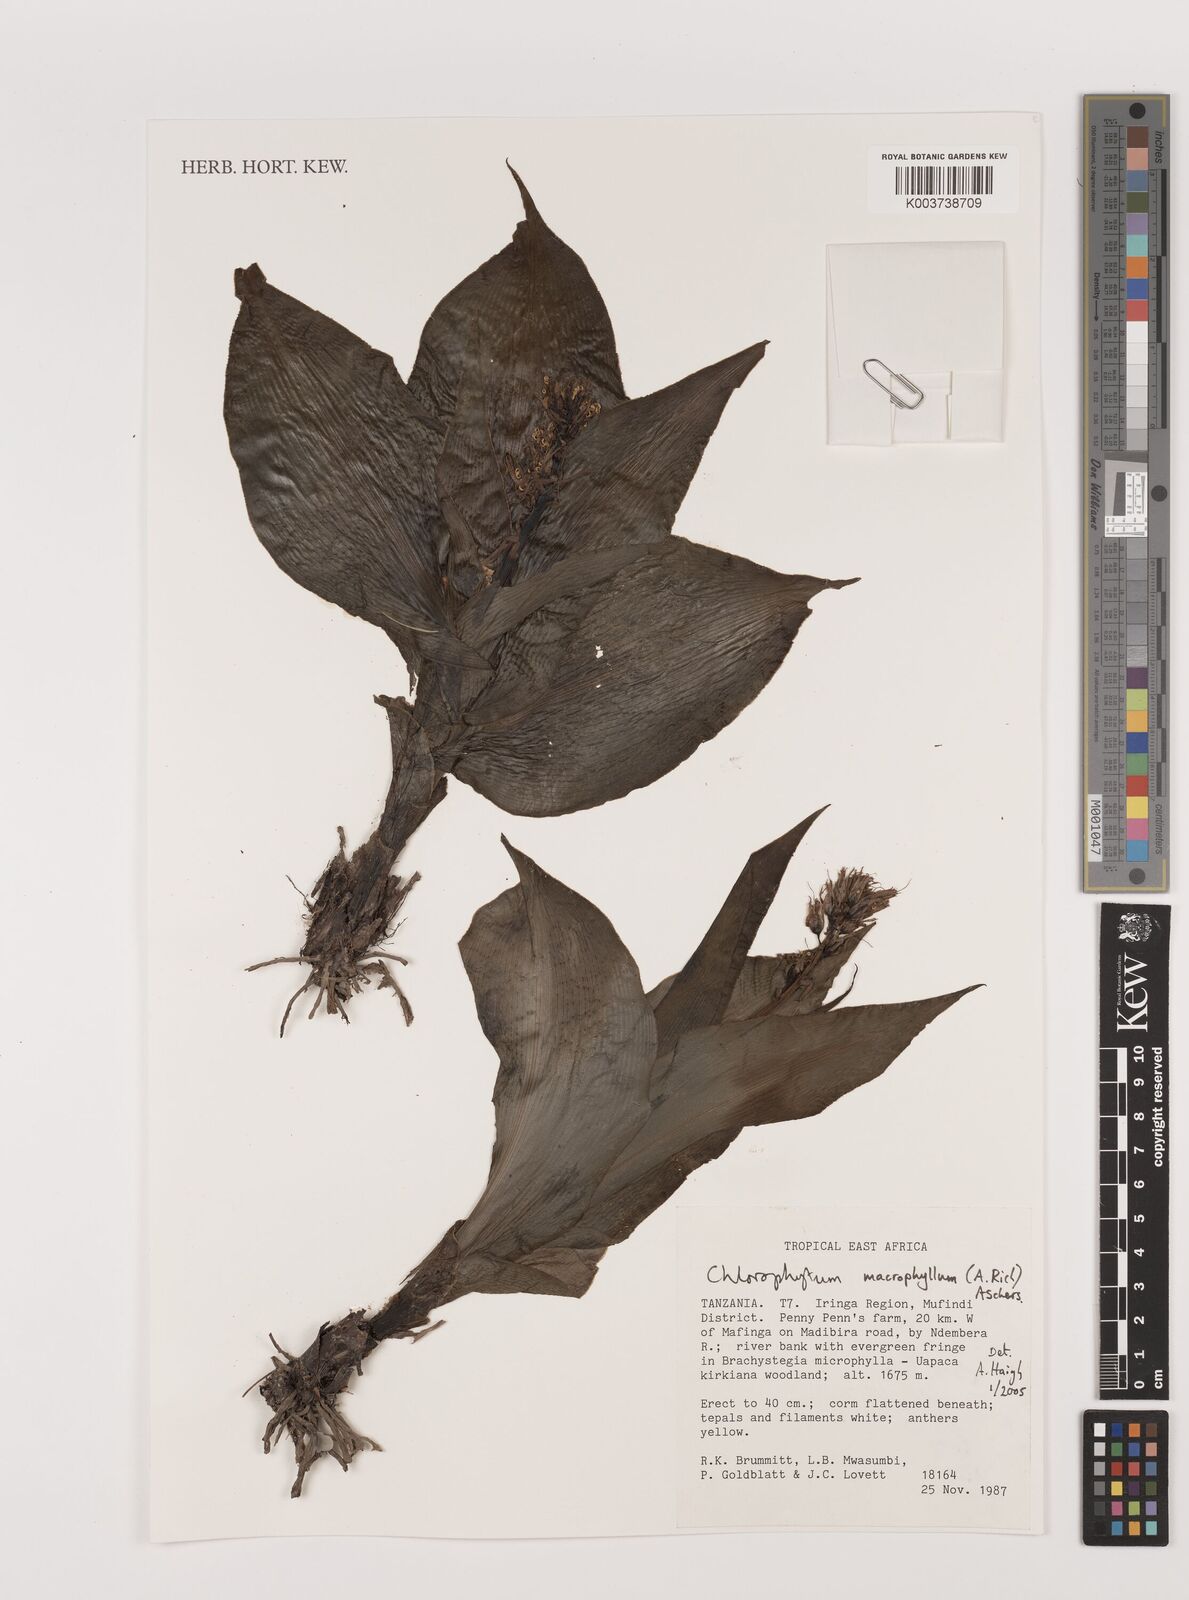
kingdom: Plantae
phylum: Tracheophyta
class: Liliopsida
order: Asparagales
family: Asparagaceae
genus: Chlorophytum
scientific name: Chlorophytum macrophyllum
